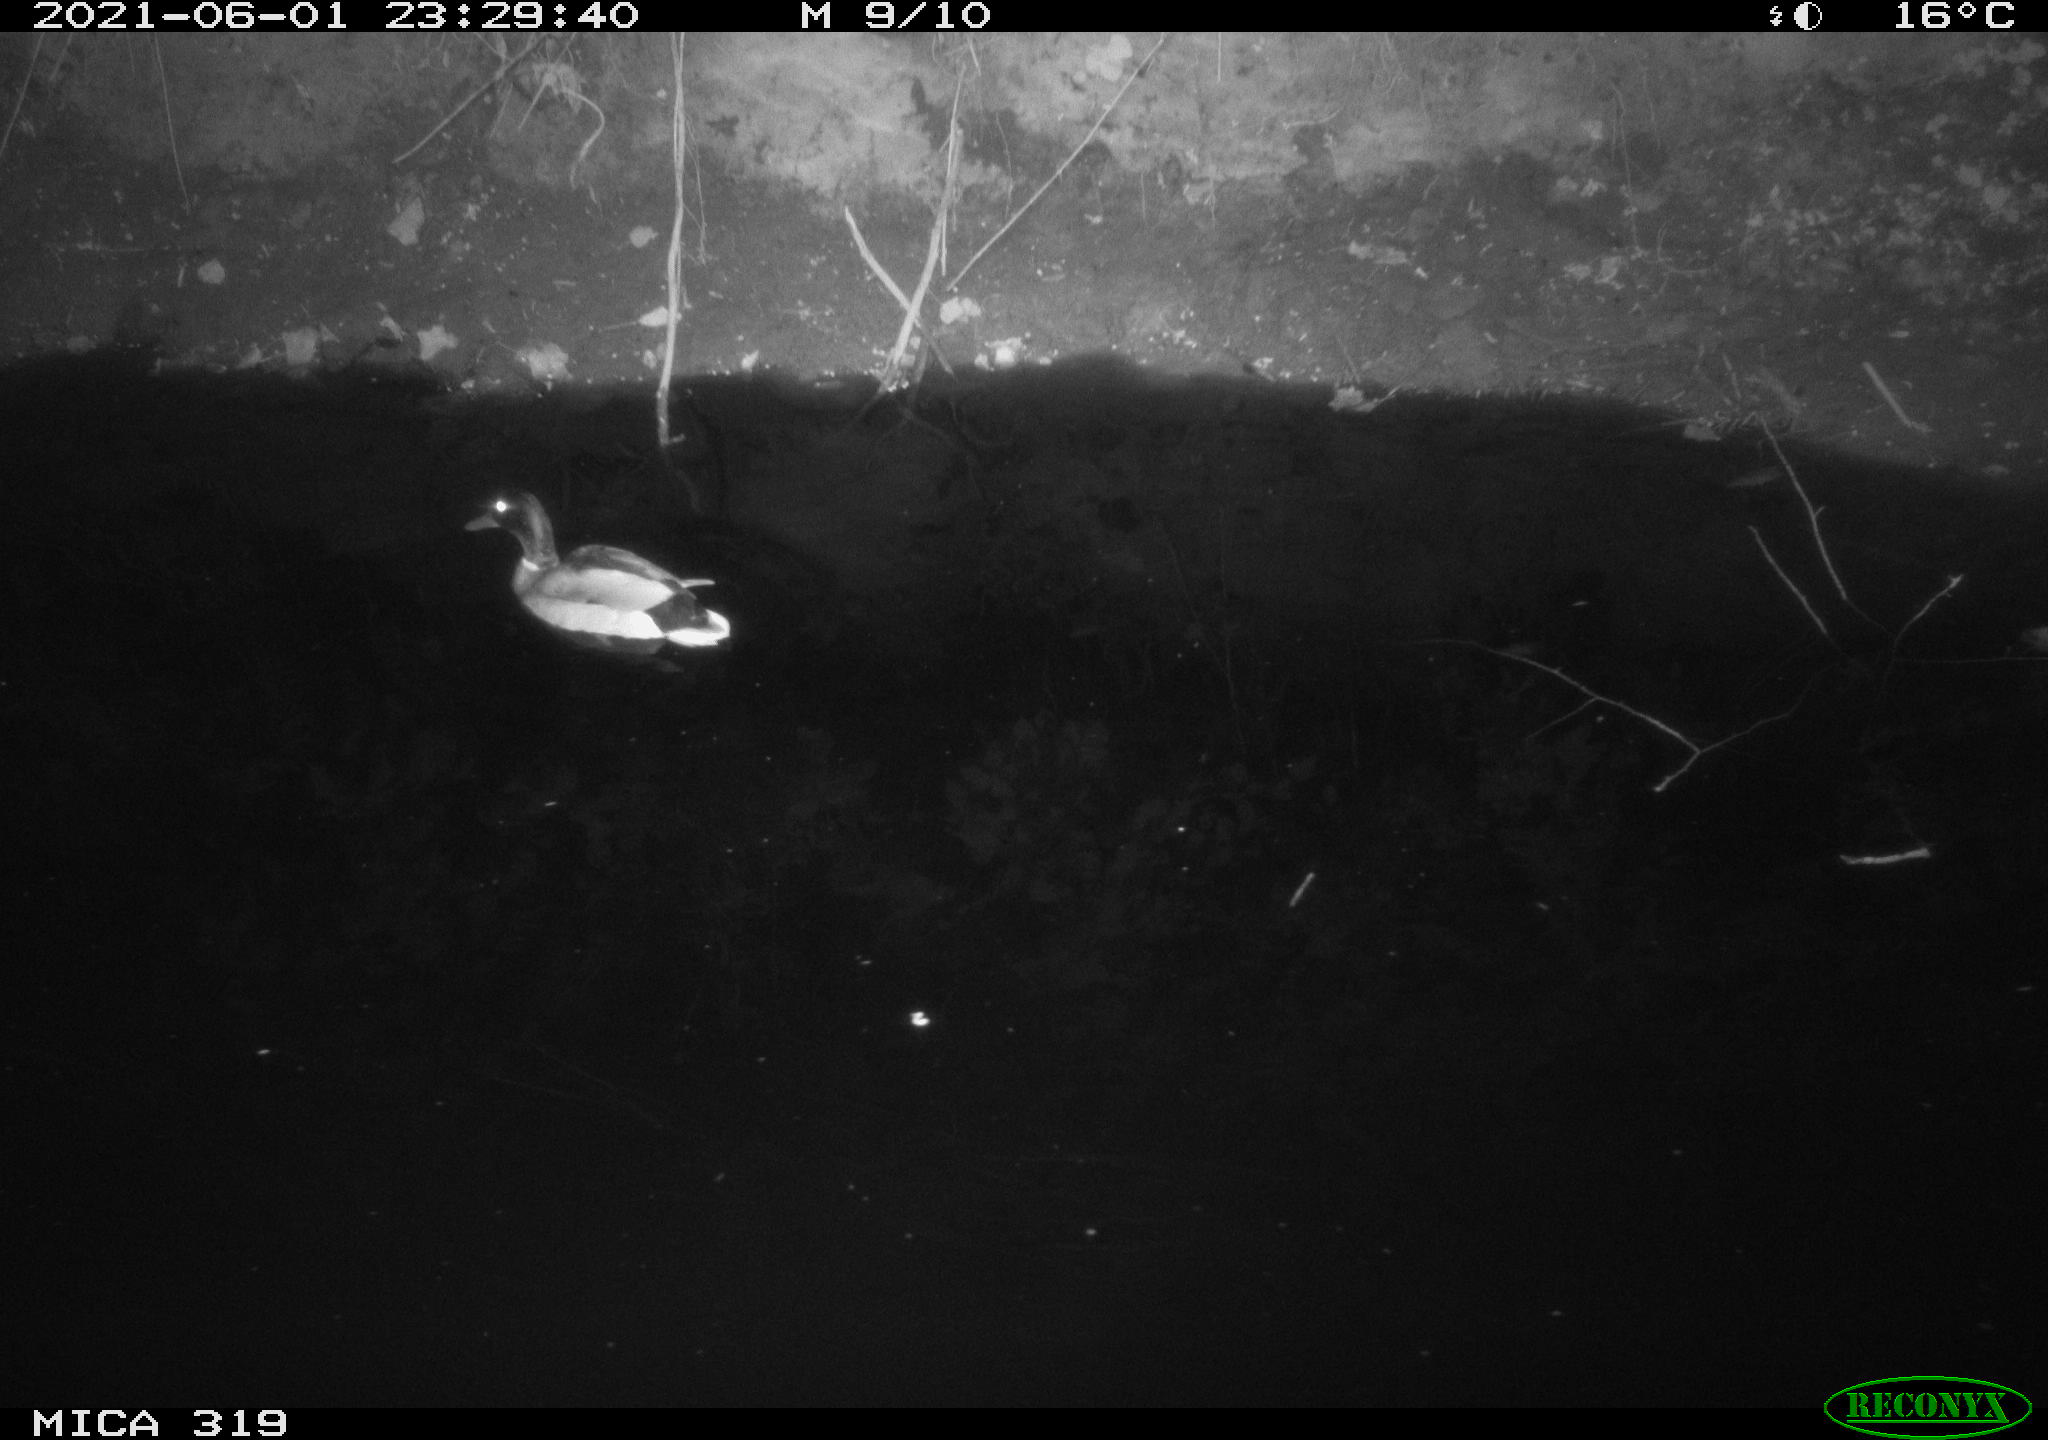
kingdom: Animalia
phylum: Chordata
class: Aves
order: Anseriformes
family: Anatidae
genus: Anas
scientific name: Anas platyrhynchos
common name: Mallard
